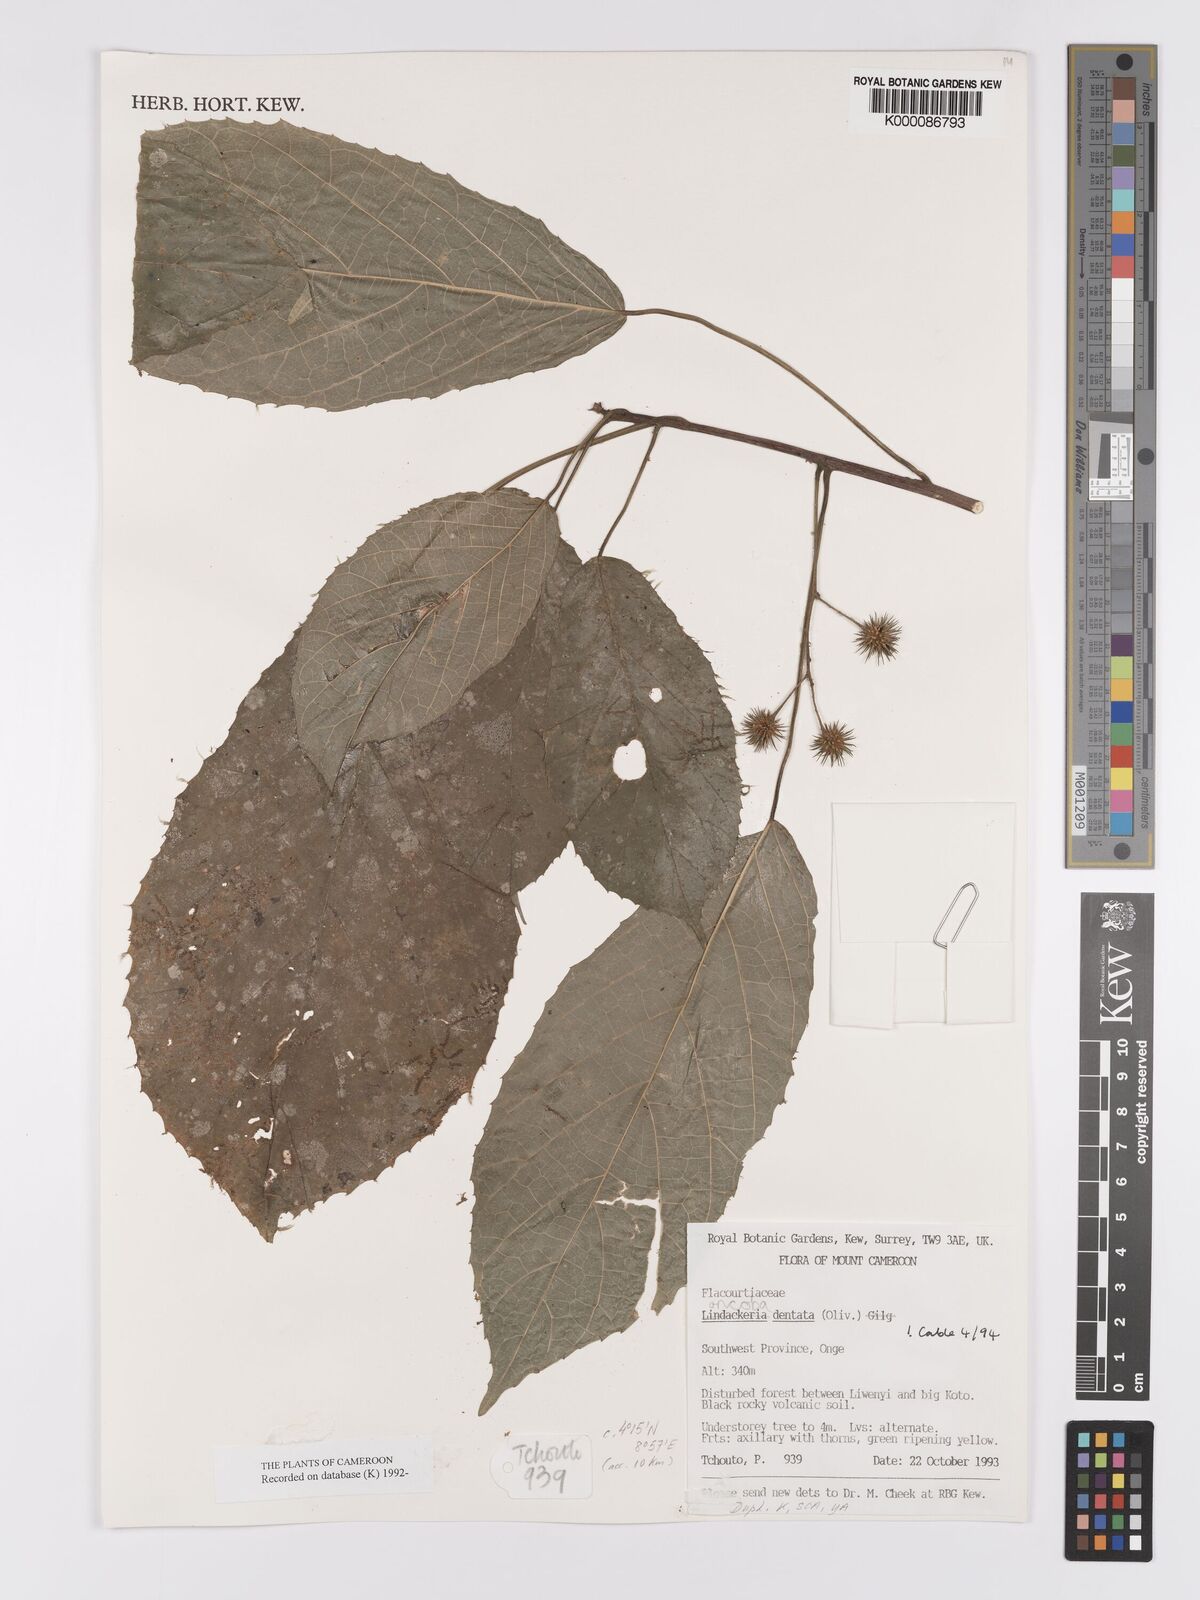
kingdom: Plantae
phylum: Tracheophyta
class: Magnoliopsida
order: Malpighiales
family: Achariaceae
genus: Lindackeria
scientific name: Lindackeria dentata
